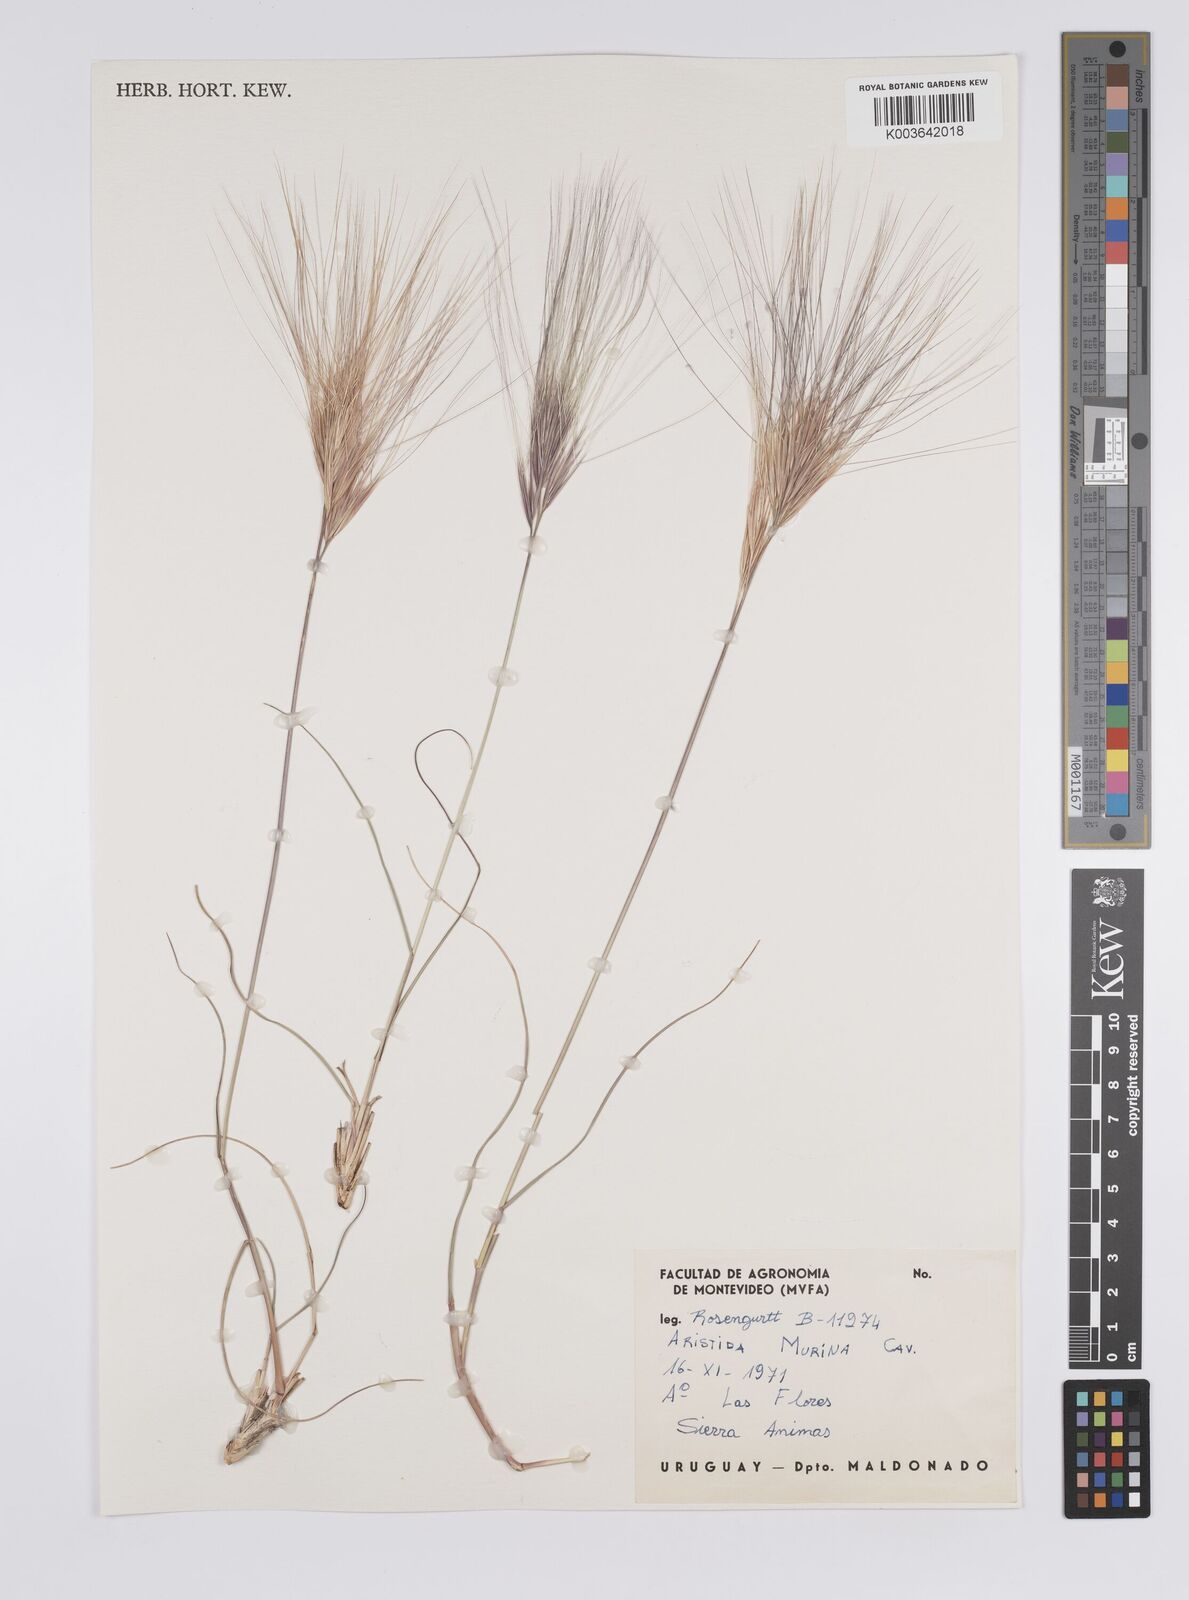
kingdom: Plantae
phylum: Tracheophyta
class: Liliopsida
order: Poales
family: Poaceae
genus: Aristida
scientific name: Aristida murina
